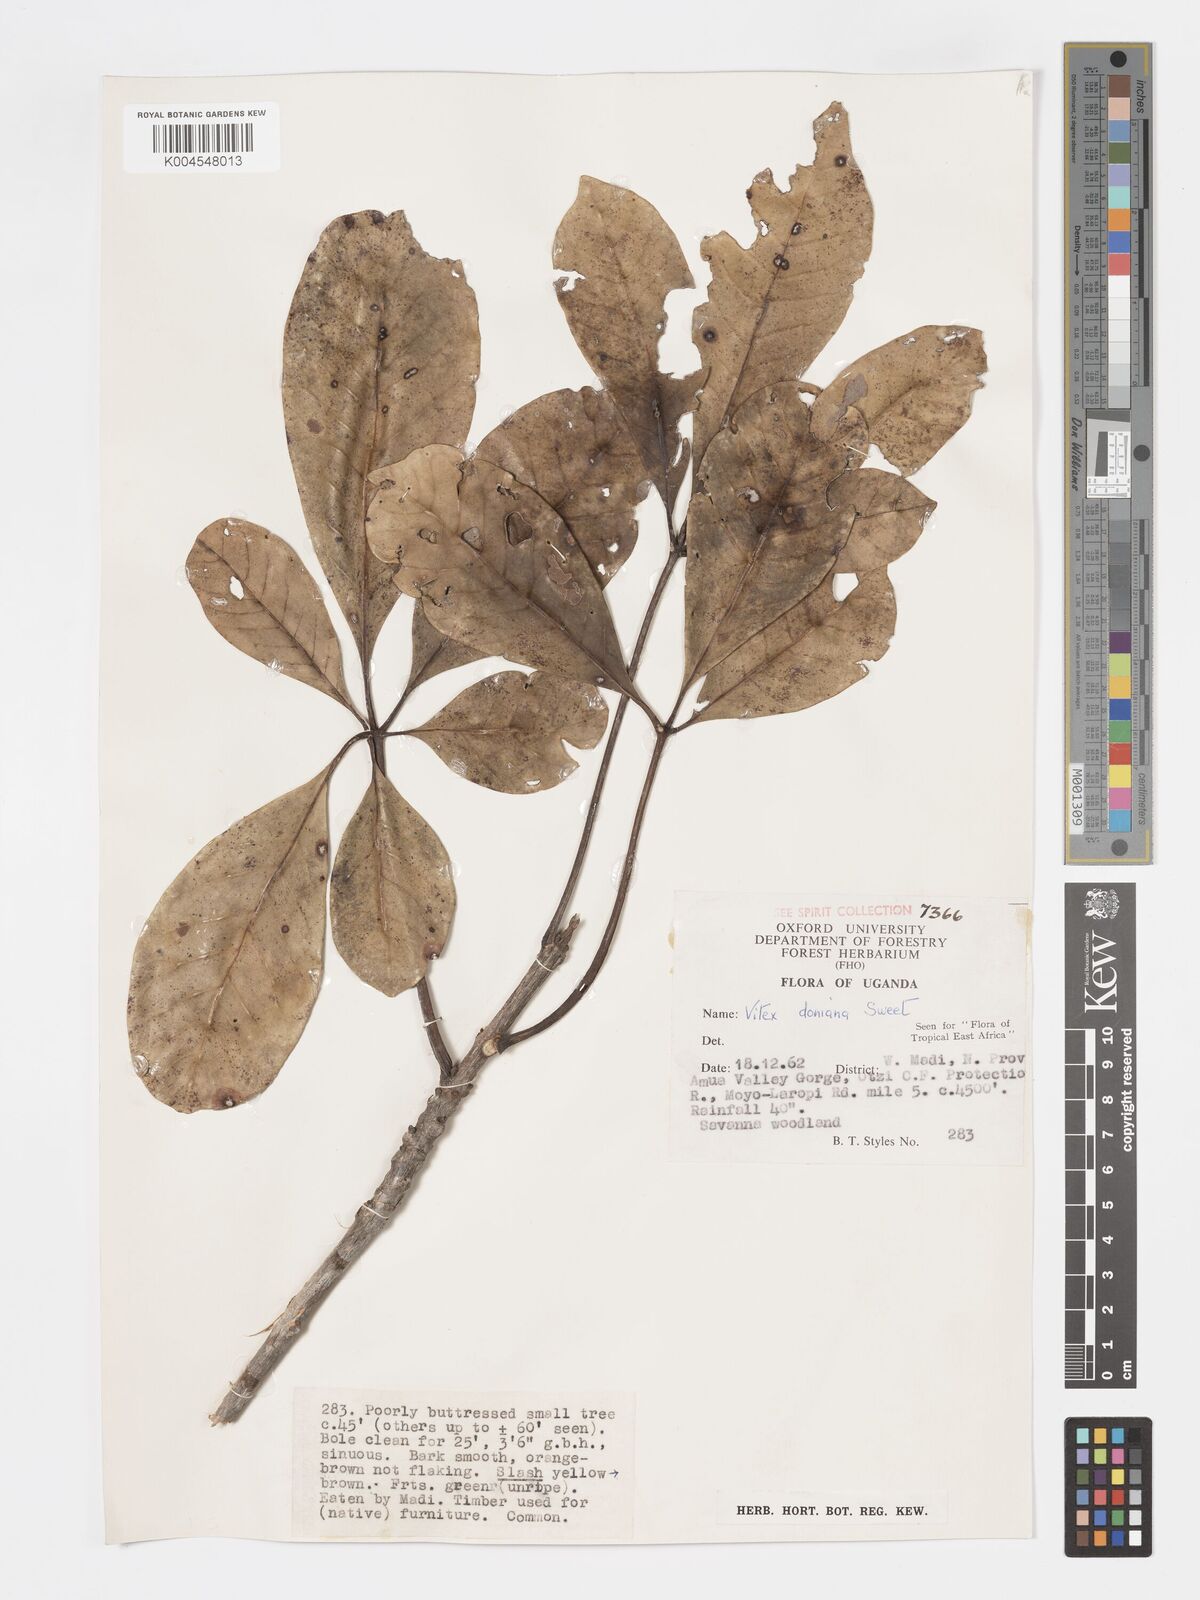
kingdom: Plantae
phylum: Tracheophyta
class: Magnoliopsida
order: Lamiales
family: Lamiaceae
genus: Vitex
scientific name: Vitex doniana
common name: Black plum
